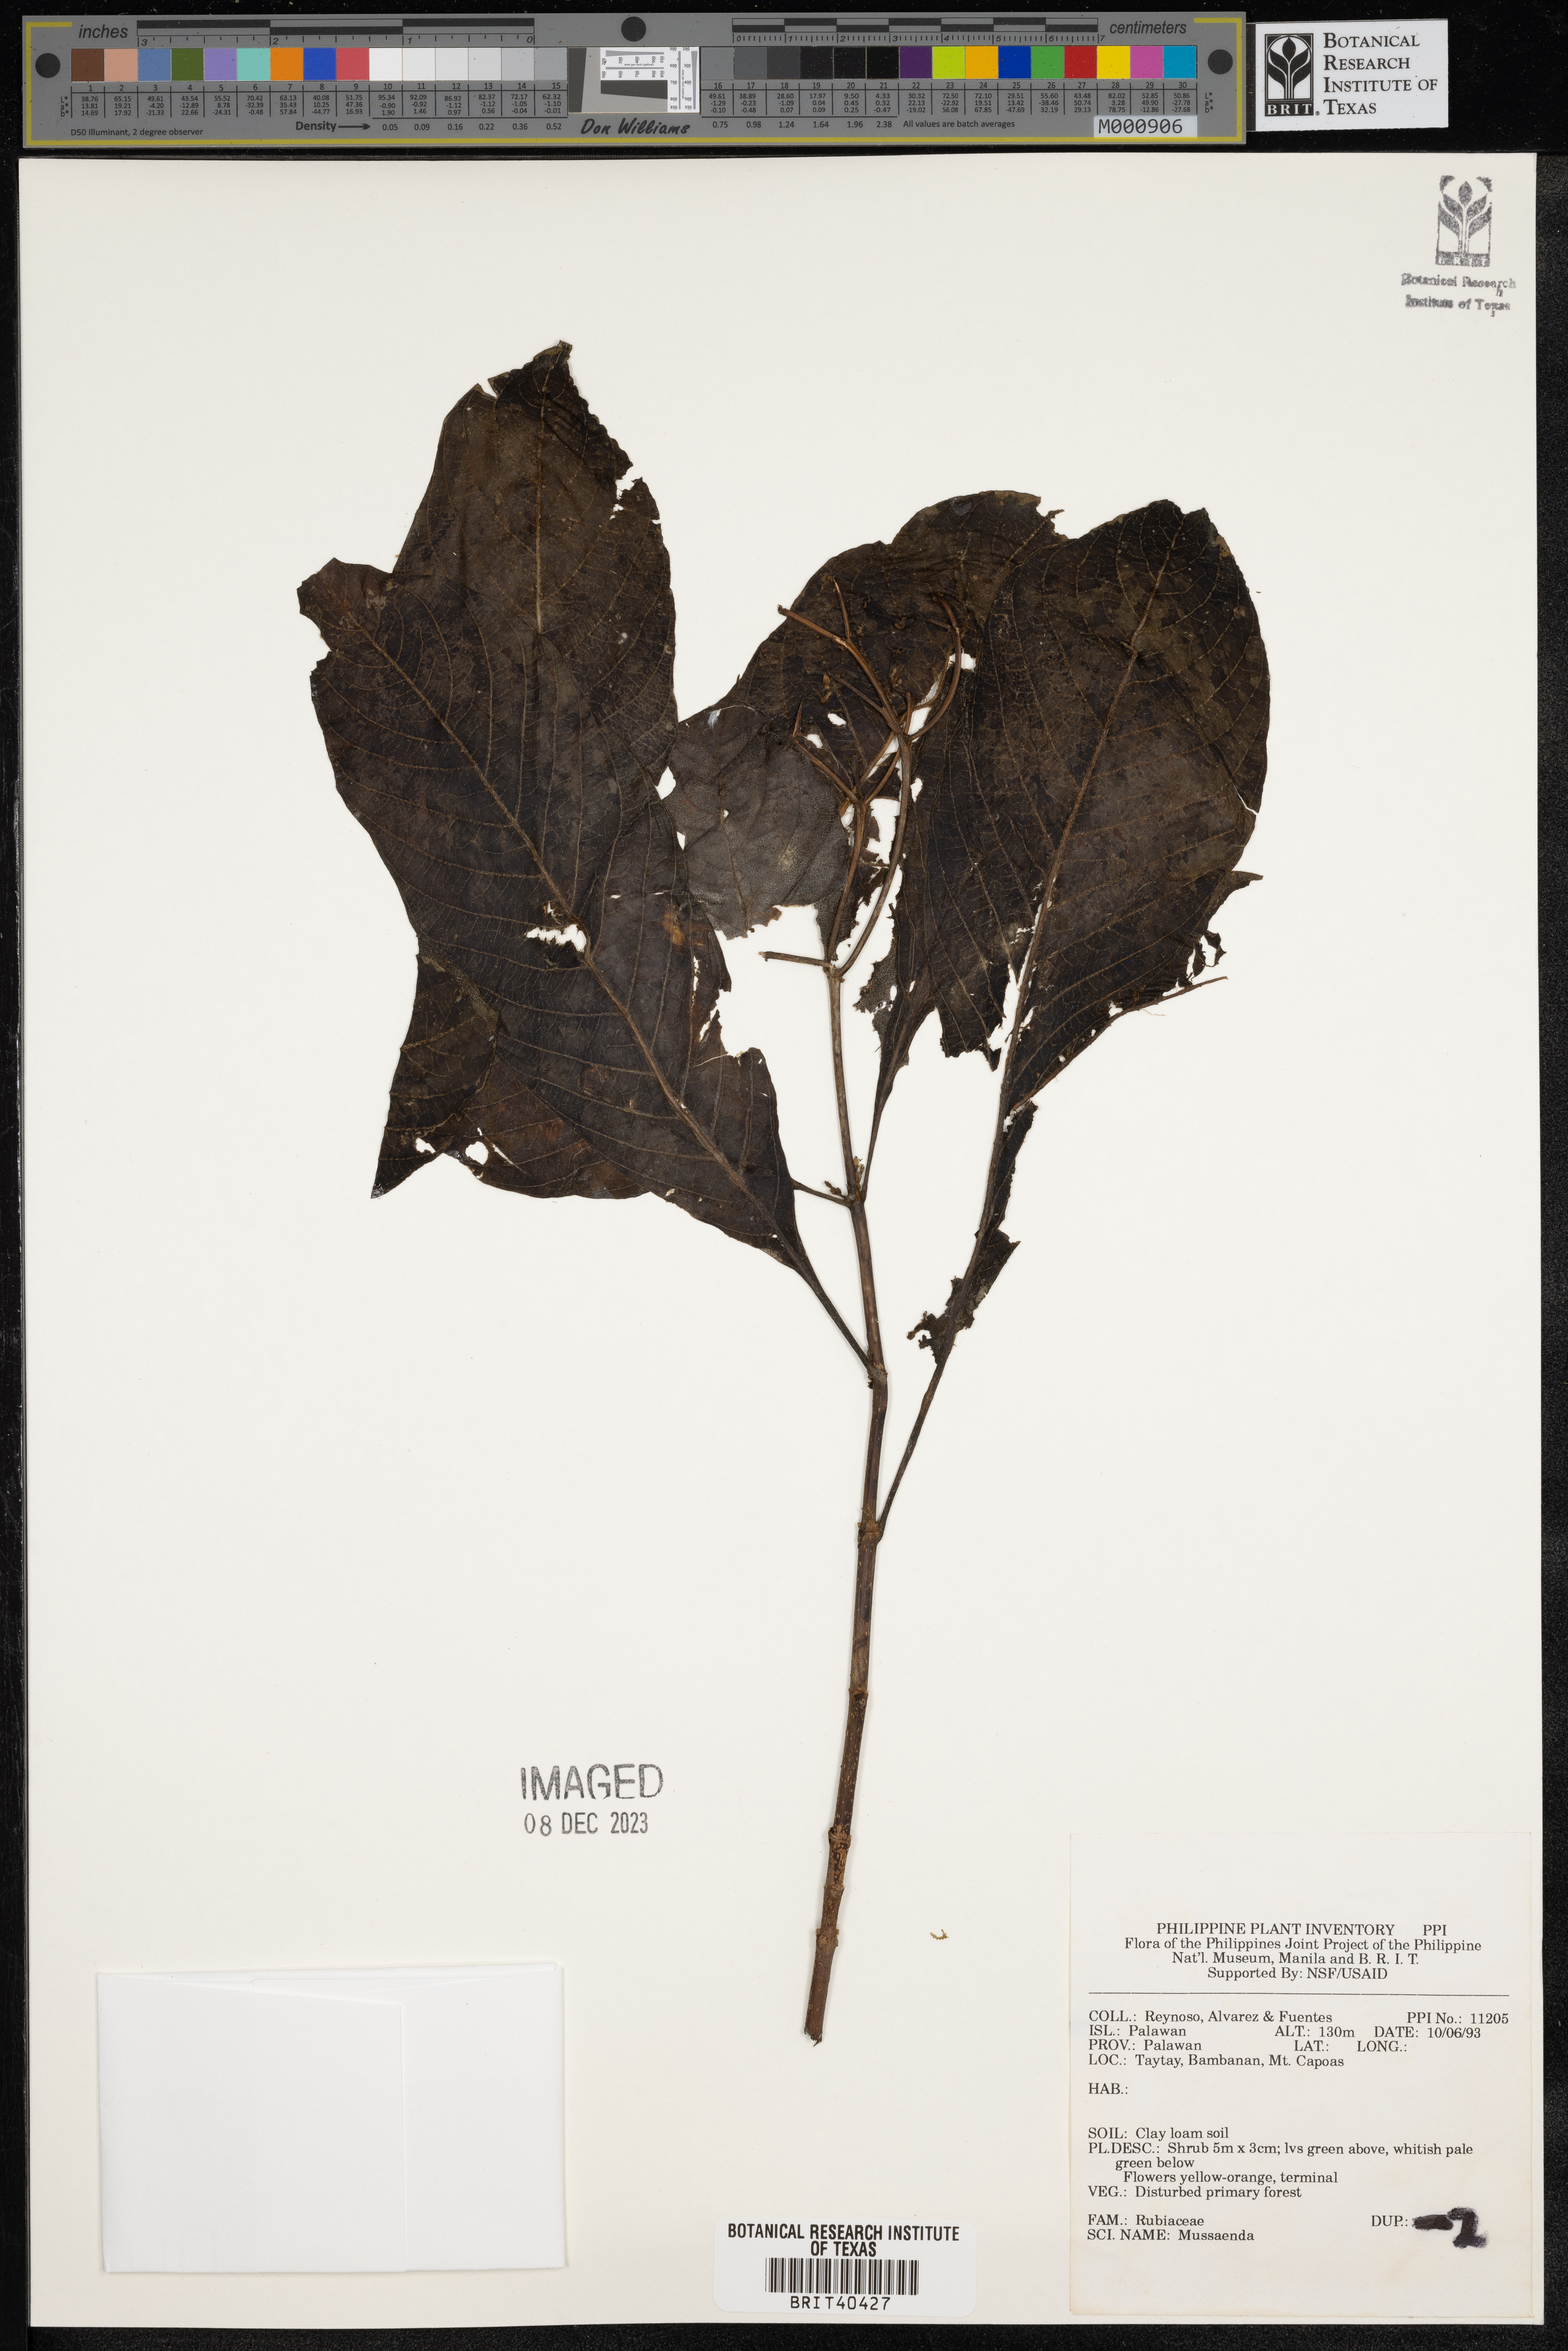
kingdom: Plantae
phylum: Tracheophyta
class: Magnoliopsida
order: Gentianales
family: Rubiaceae
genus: Mussaenda
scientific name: Mussaenda
